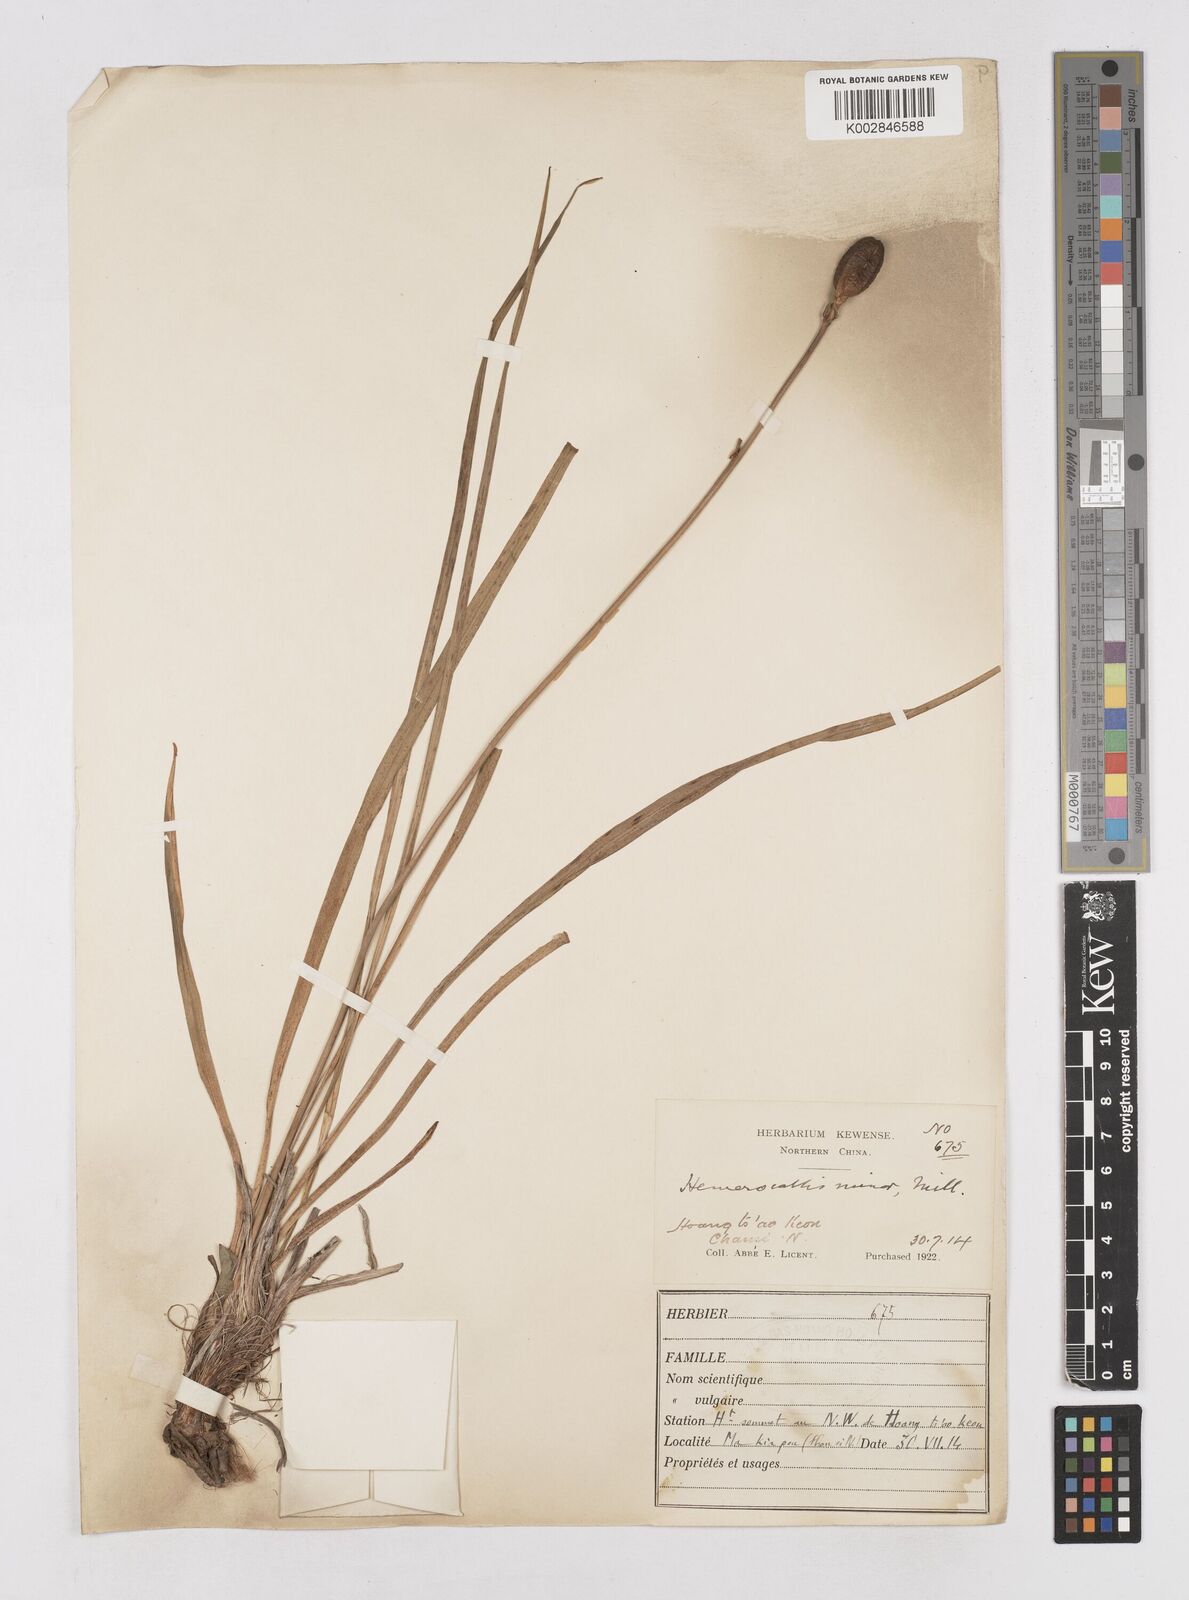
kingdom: Plantae
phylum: Tracheophyta
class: Liliopsida
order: Asparagales
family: Asphodelaceae
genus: Hemerocallis
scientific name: Hemerocallis minor
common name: Small daylily
